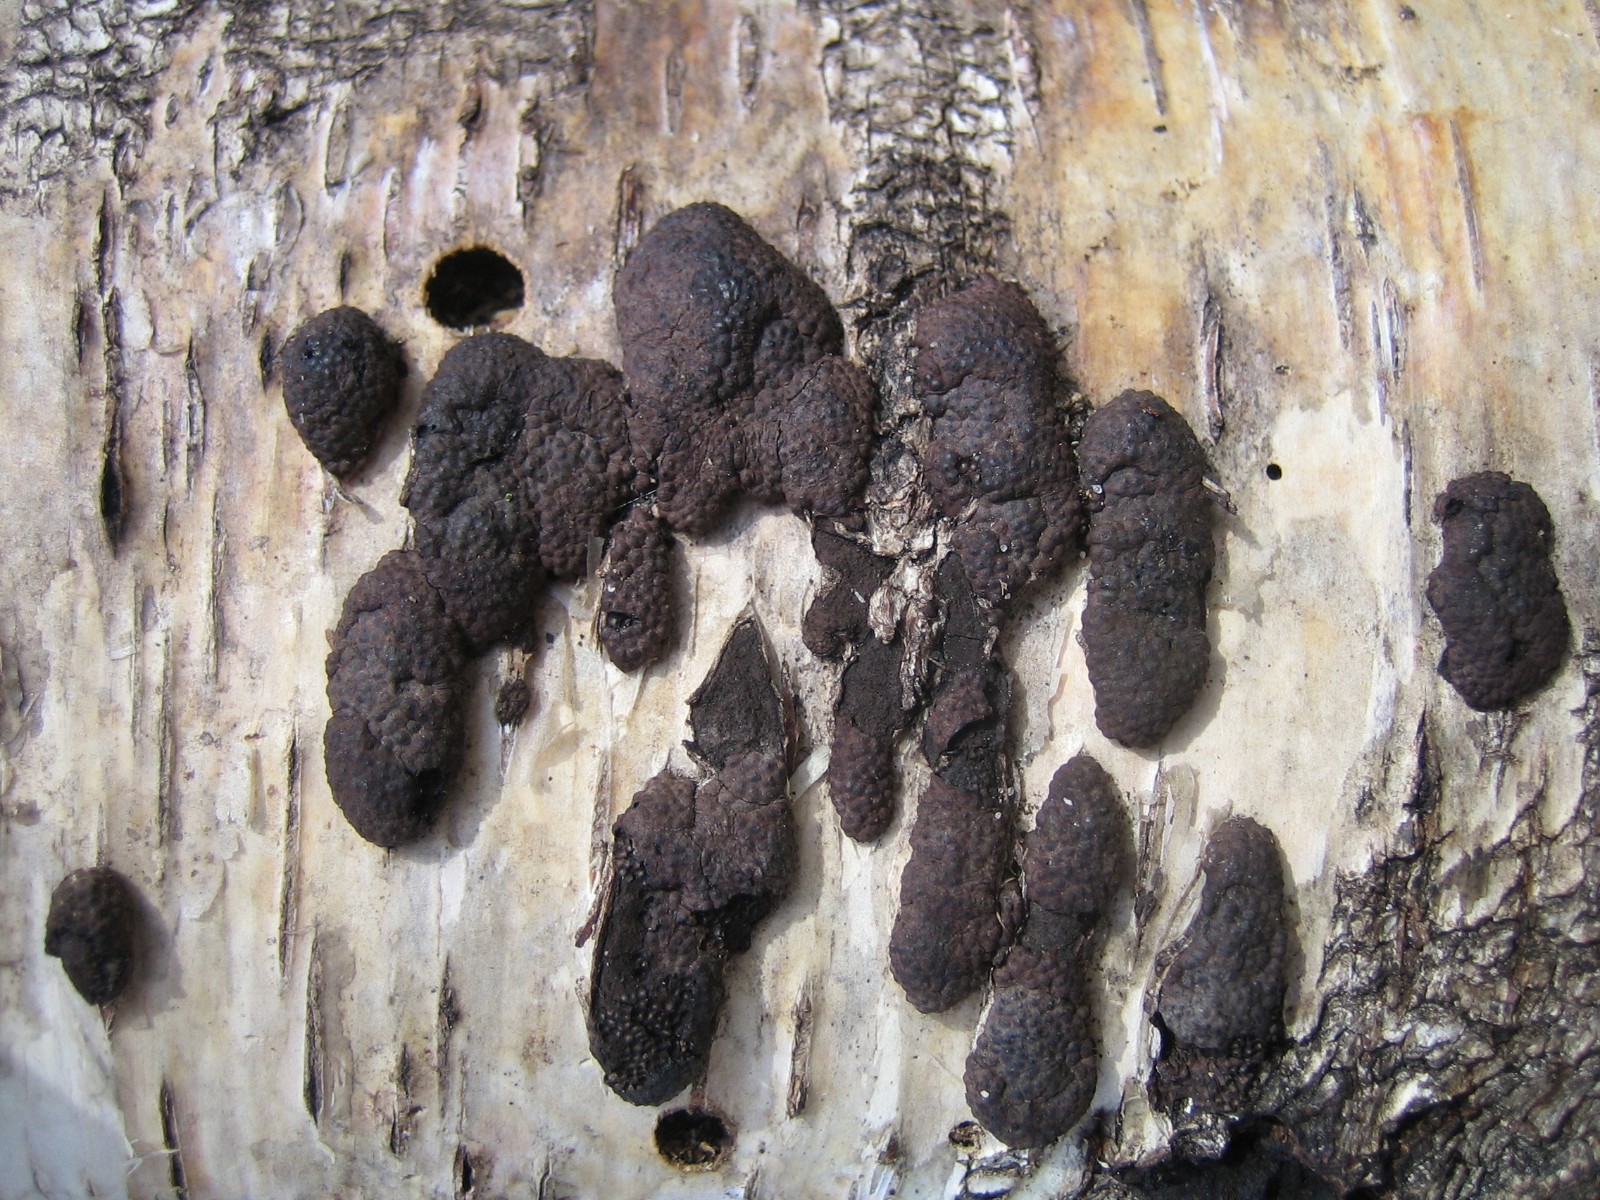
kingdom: Fungi
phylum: Ascomycota
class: Sordariomycetes
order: Xylariales
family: Hypoxylaceae
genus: Jackrogersella
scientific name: Jackrogersella multiformis
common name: foranderlig kulbær
